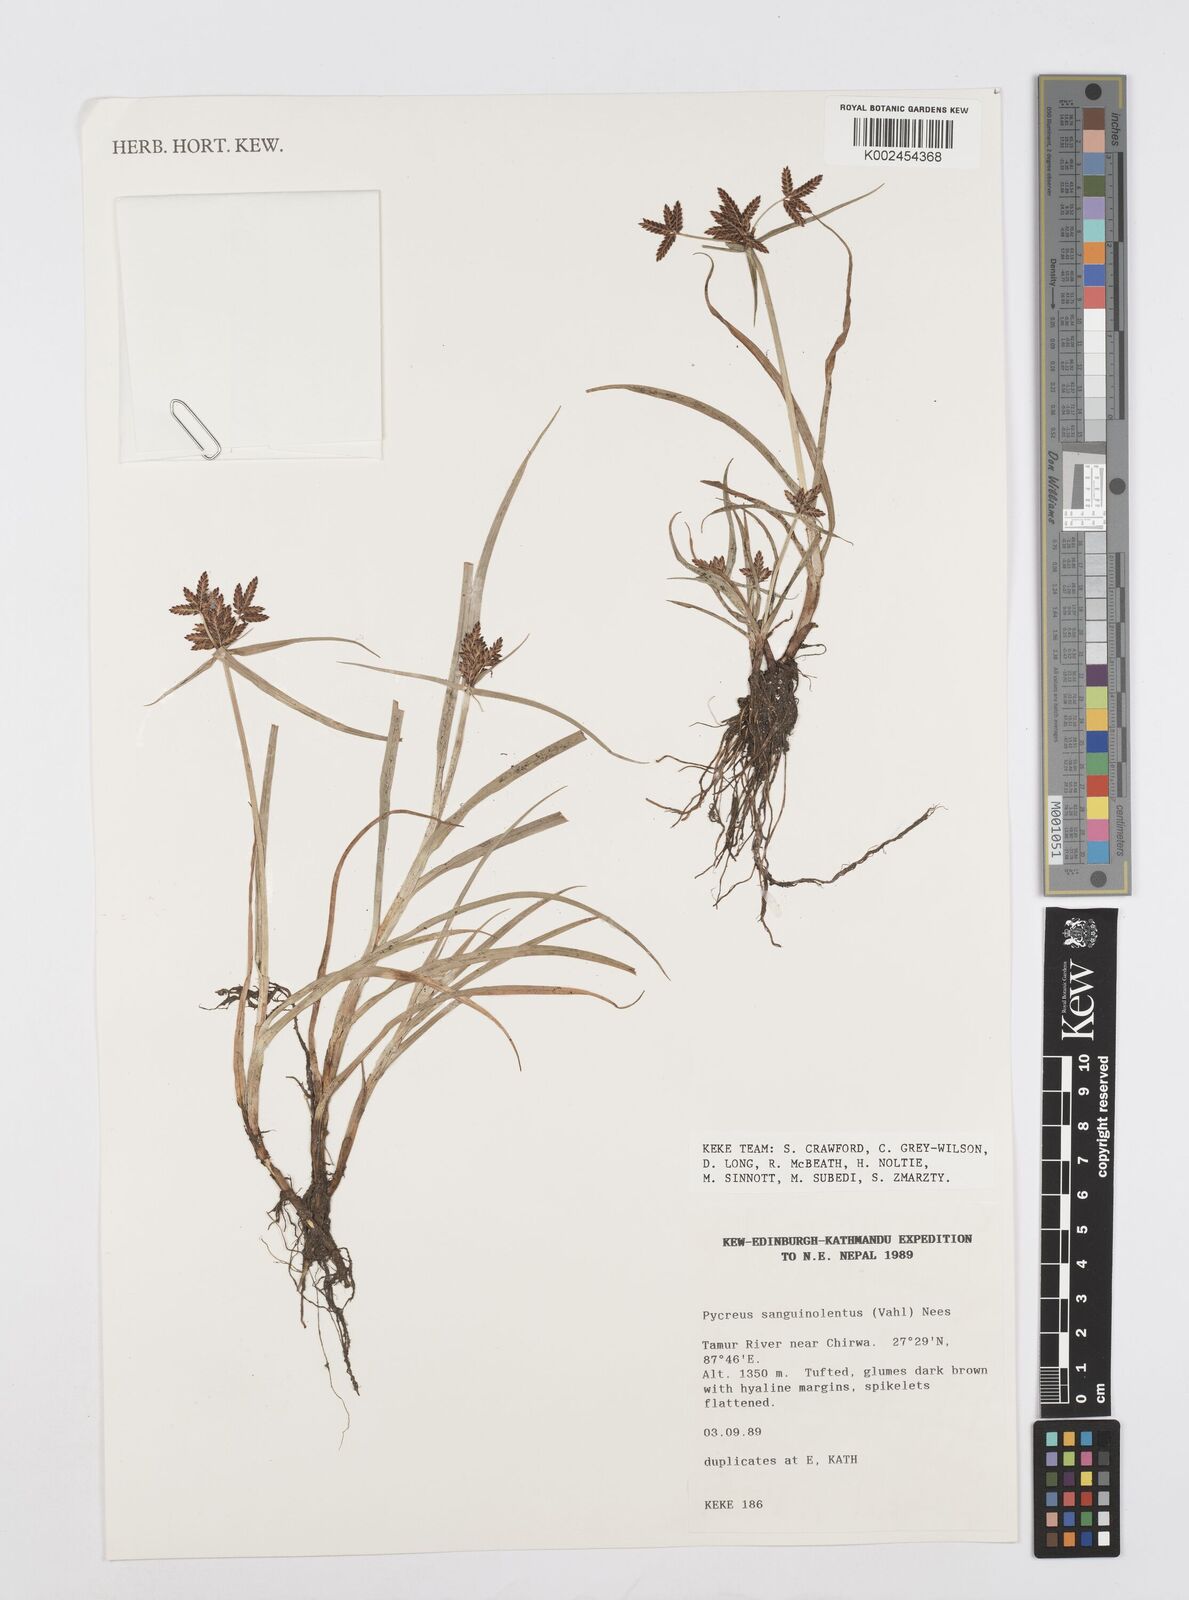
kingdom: Plantae
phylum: Tracheophyta
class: Liliopsida
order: Poales
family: Cyperaceae
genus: Cyperus
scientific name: Cyperus sanguinolentus
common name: Purpleglume flatsedge
